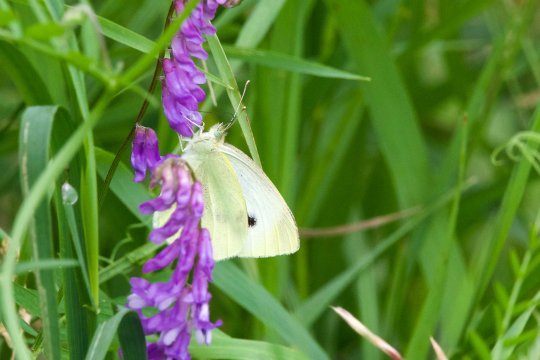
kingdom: Animalia
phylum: Arthropoda
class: Insecta
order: Lepidoptera
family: Pieridae
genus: Pieris
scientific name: Pieris rapae
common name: Cabbage White
